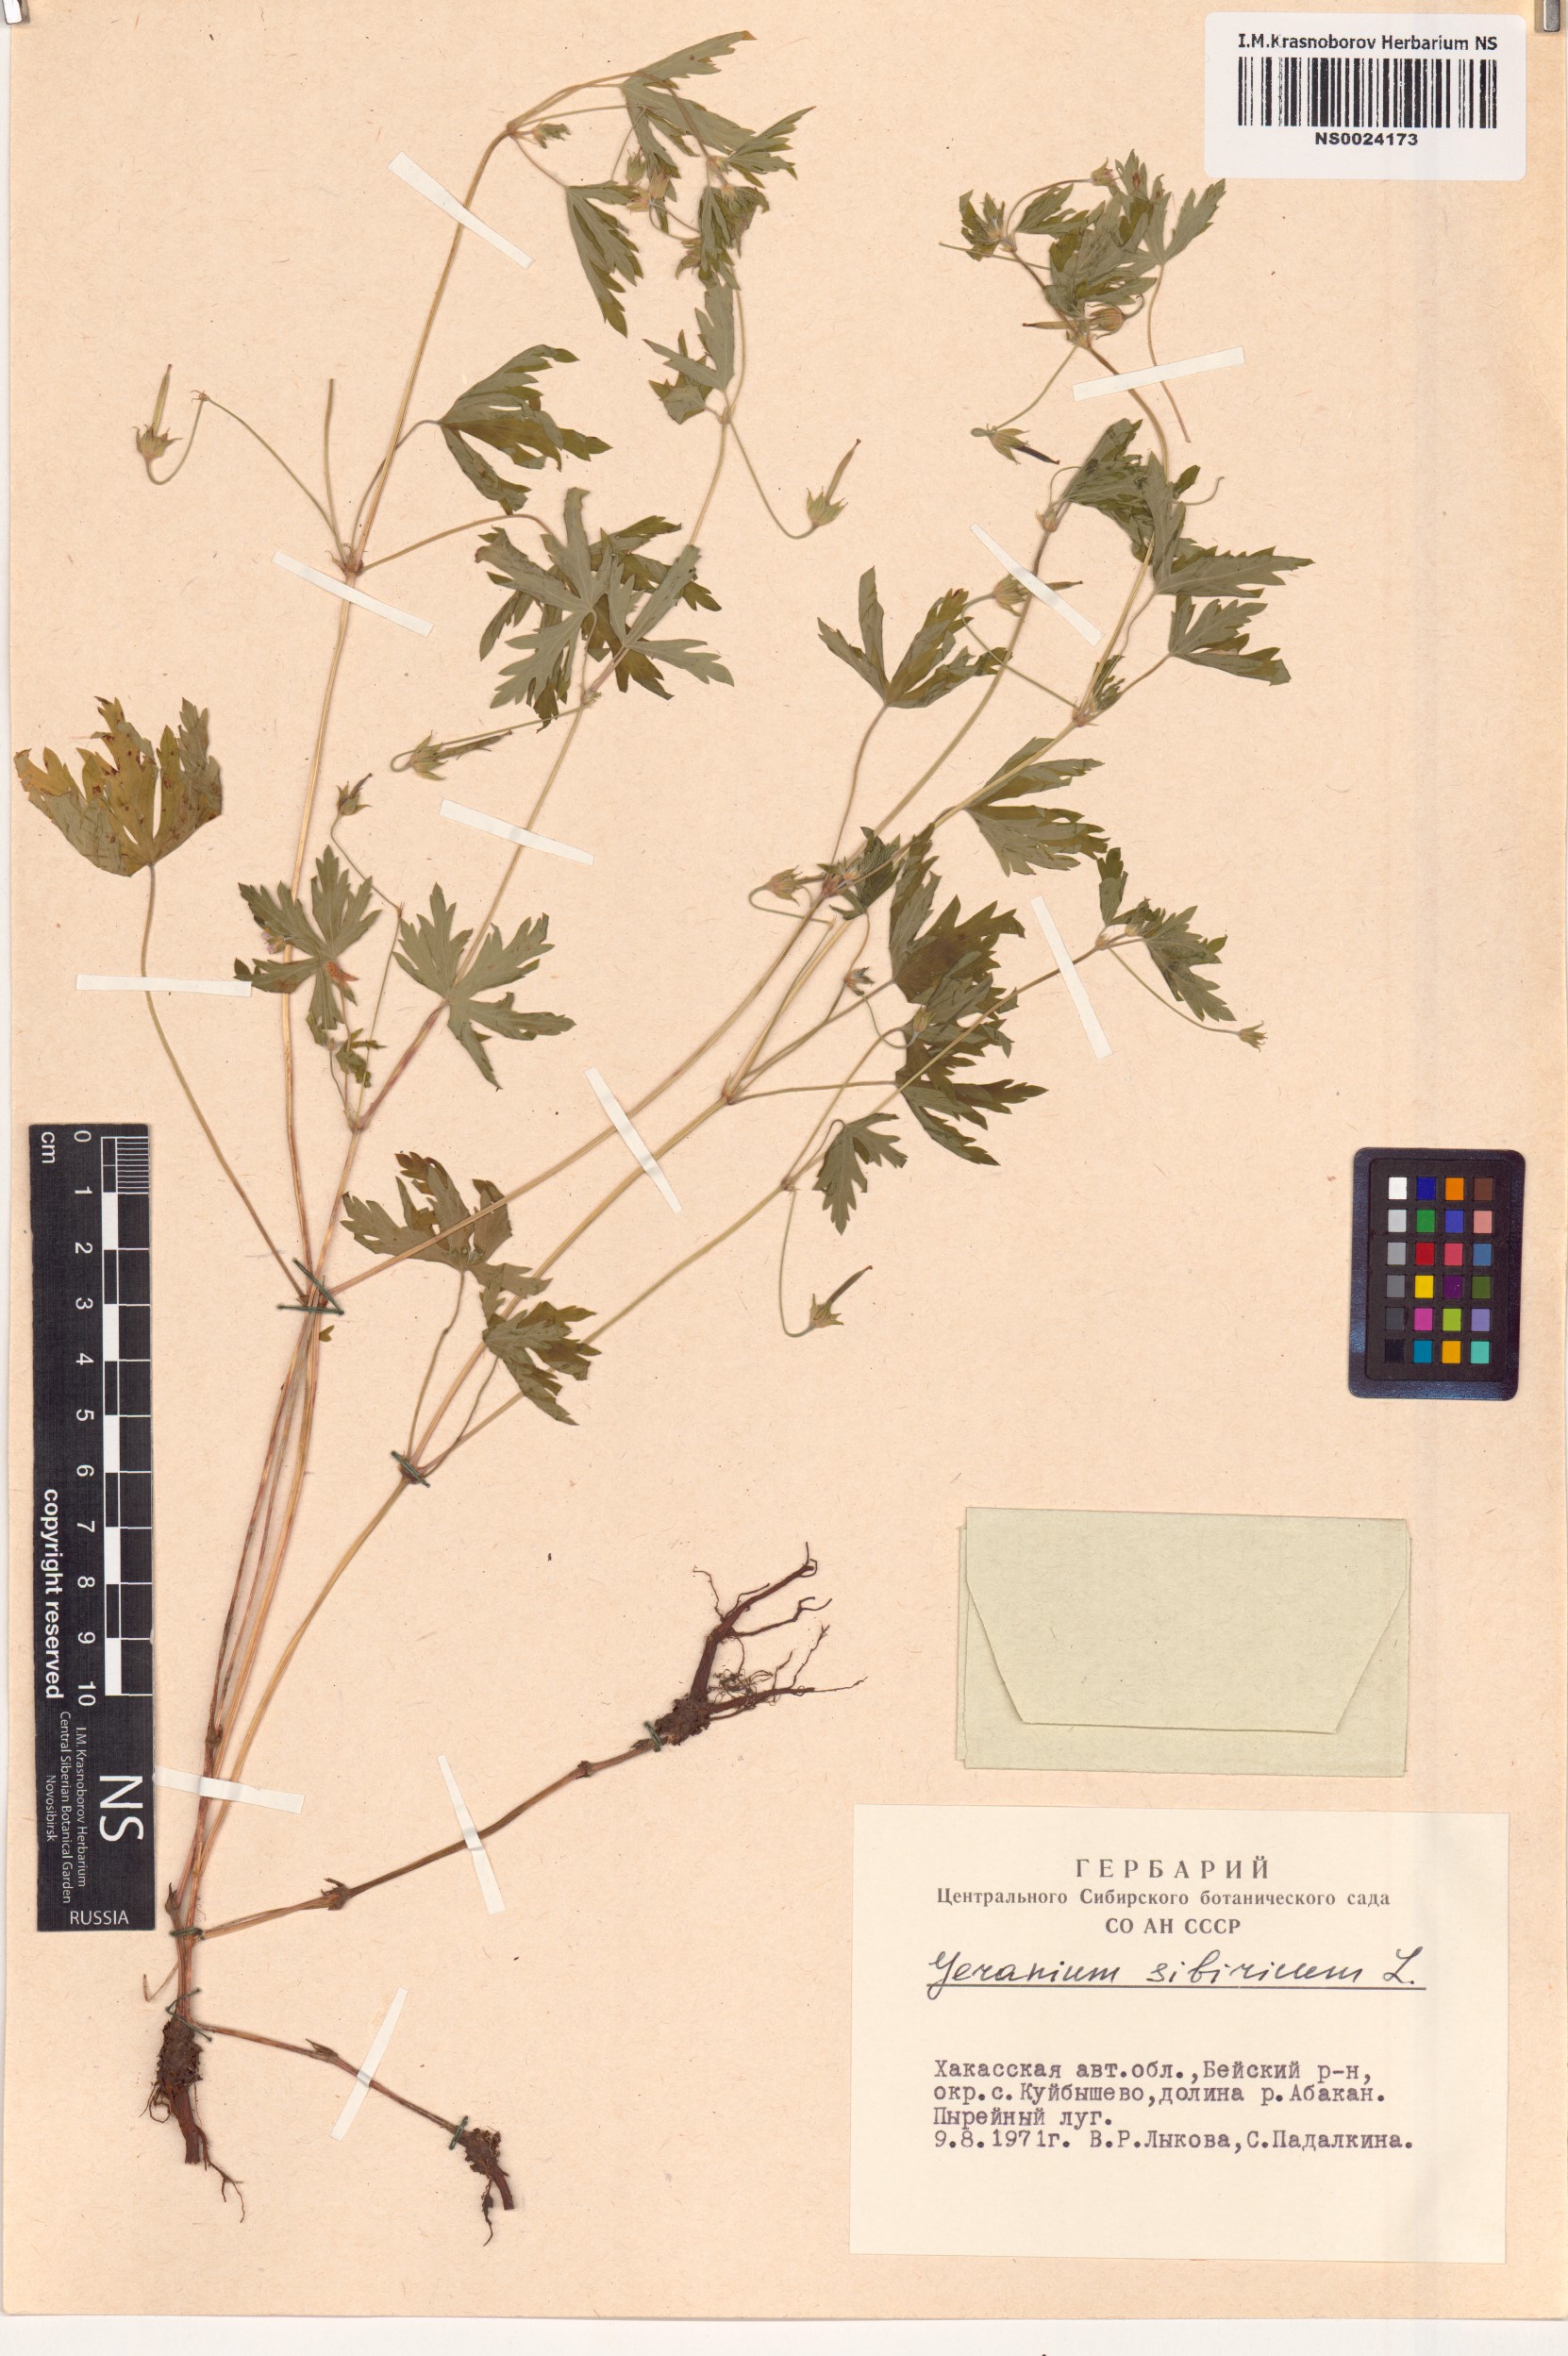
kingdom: Plantae
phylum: Tracheophyta
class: Magnoliopsida
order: Geraniales
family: Geraniaceae
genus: Geranium
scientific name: Geranium sibiricum
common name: Siberian crane's-bill
